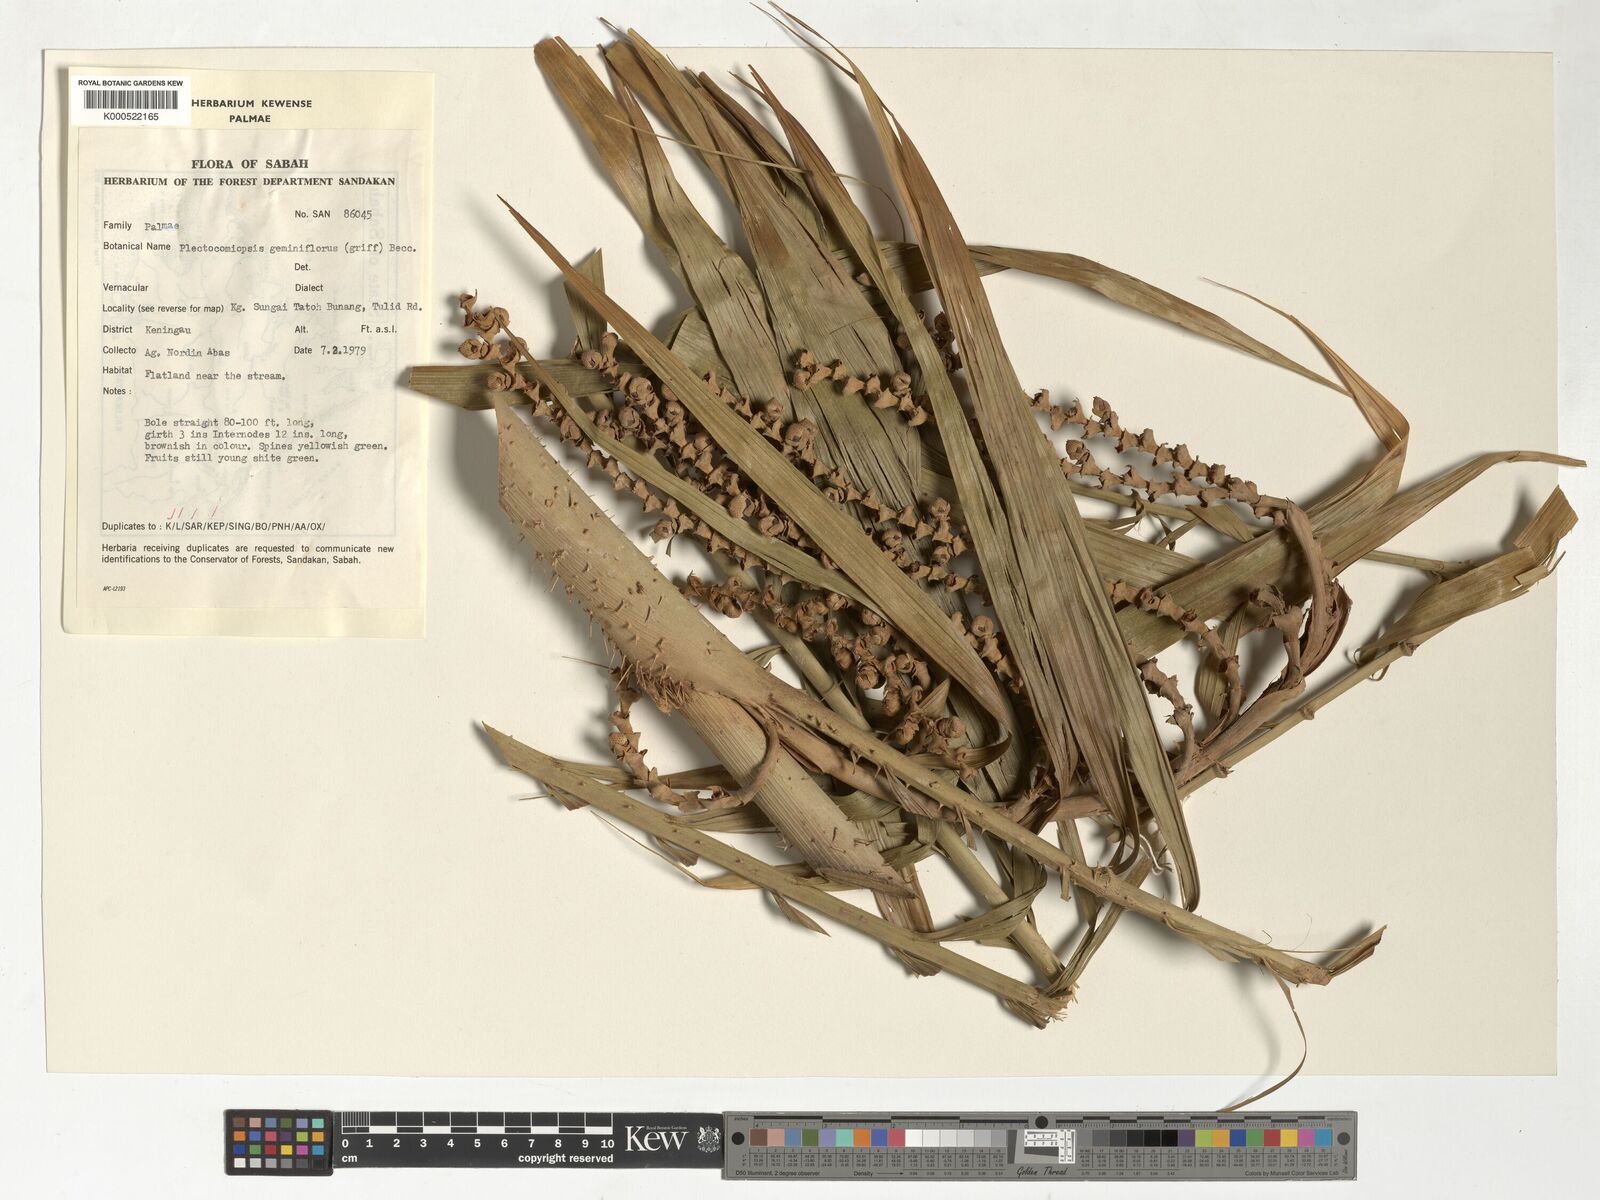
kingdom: Plantae
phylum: Tracheophyta
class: Liliopsida
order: Arecales
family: Arecaceae
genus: Plectocomiopsis
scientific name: Plectocomiopsis geminiflora
